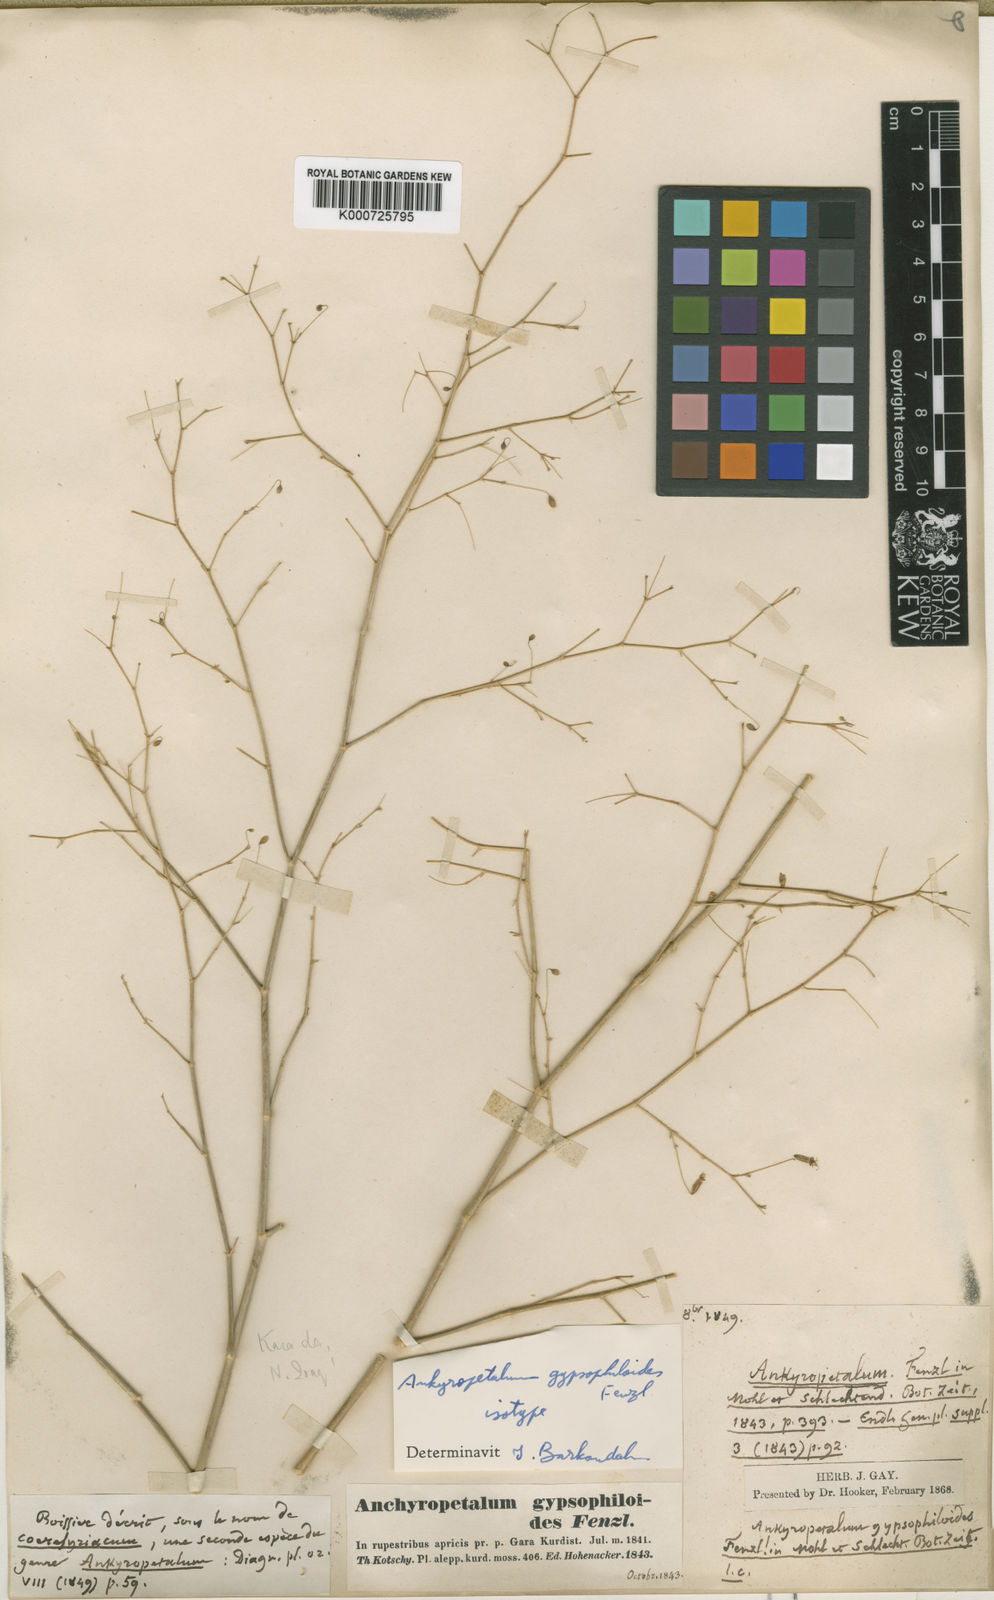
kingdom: Plantae
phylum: Tracheophyta
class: Magnoliopsida
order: Caryophyllales
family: Caryophyllaceae
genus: Mesostemma
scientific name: Mesostemma gypsophiloides
